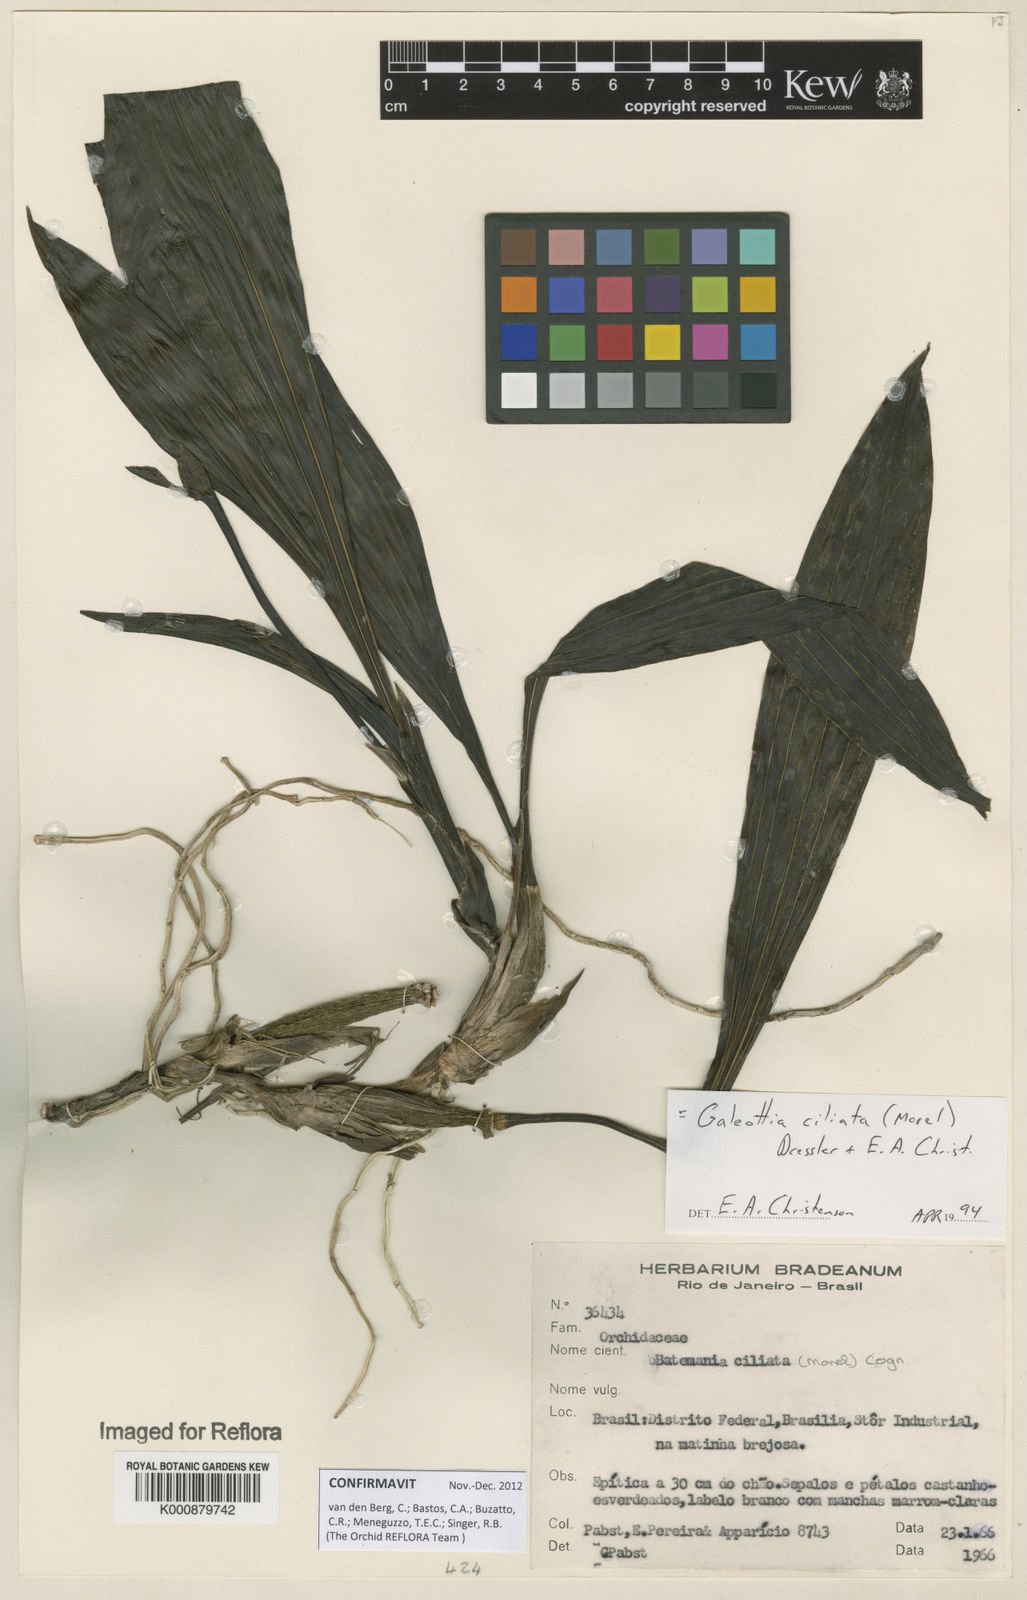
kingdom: Plantae
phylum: Tracheophyta
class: Liliopsida
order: Asparagales
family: Orchidaceae
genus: Galeottia
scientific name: Galeottia ciliata
